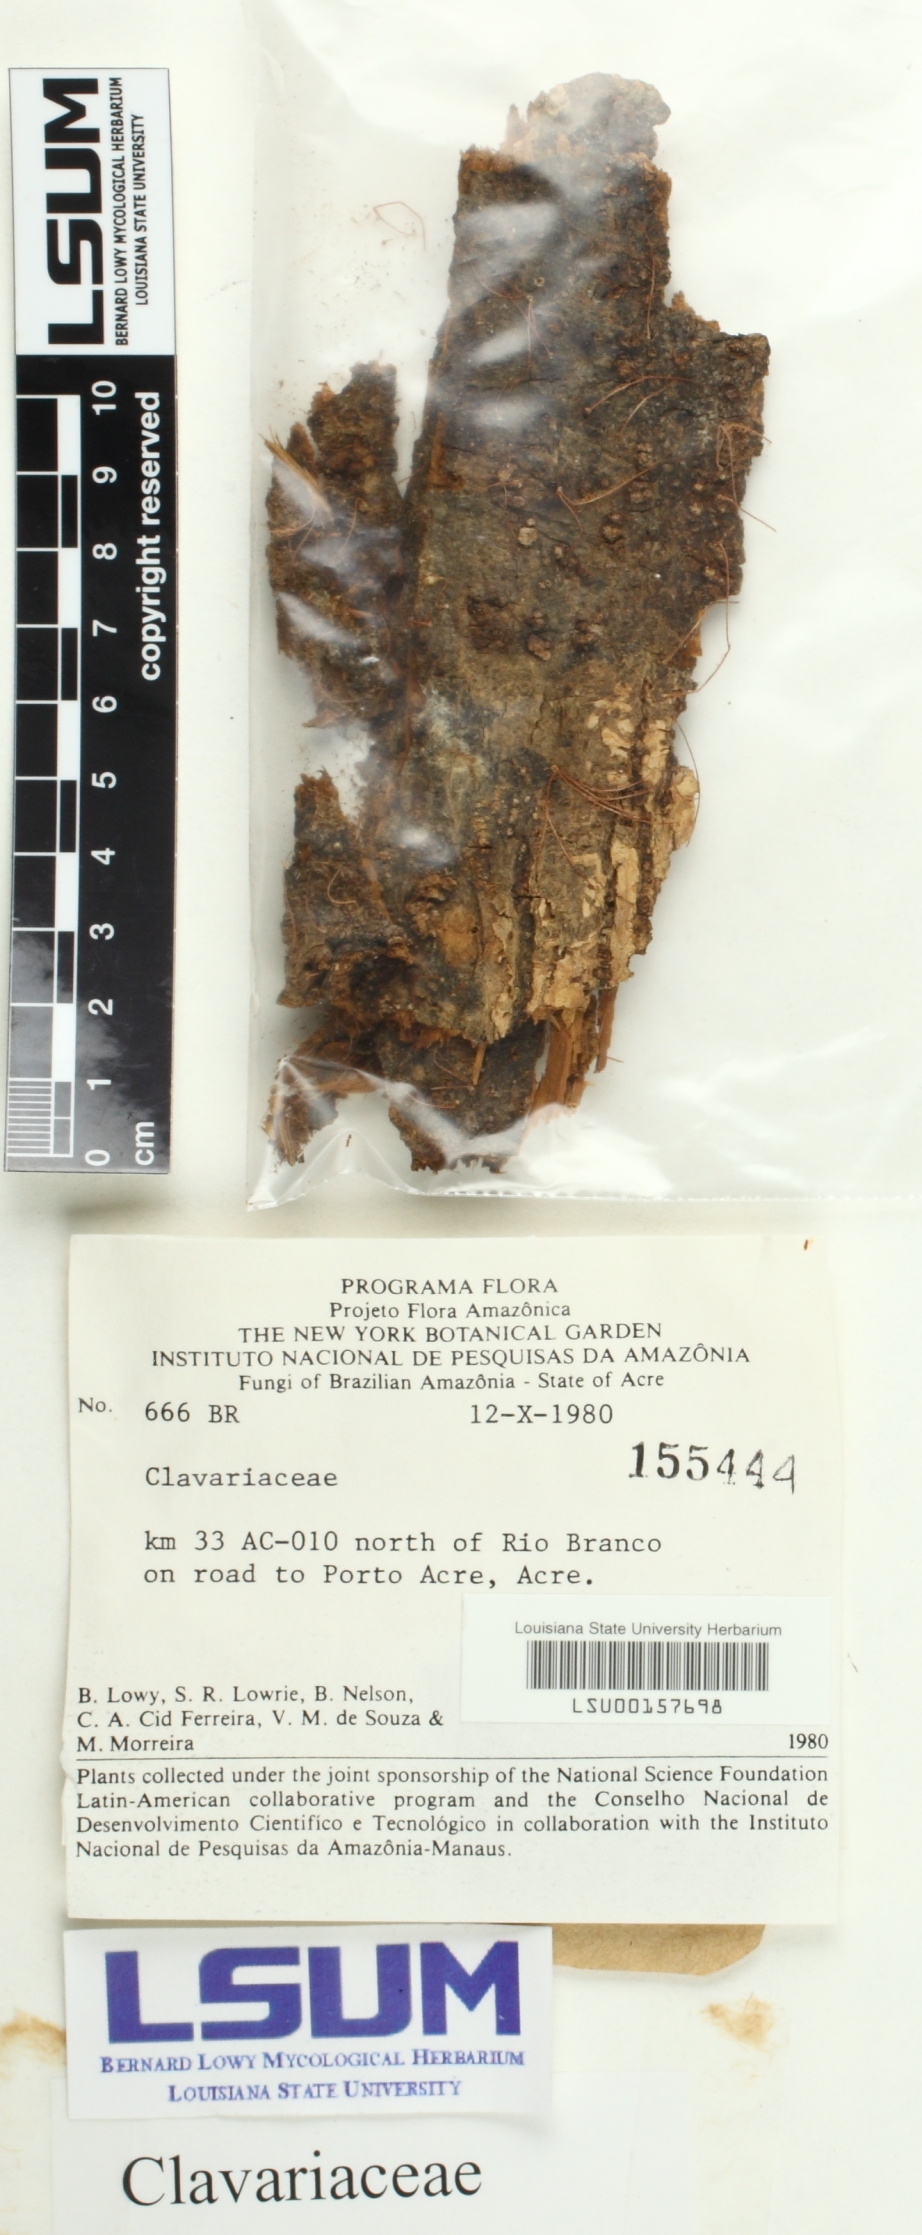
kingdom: Fungi
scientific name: Fungi
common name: Fungi
